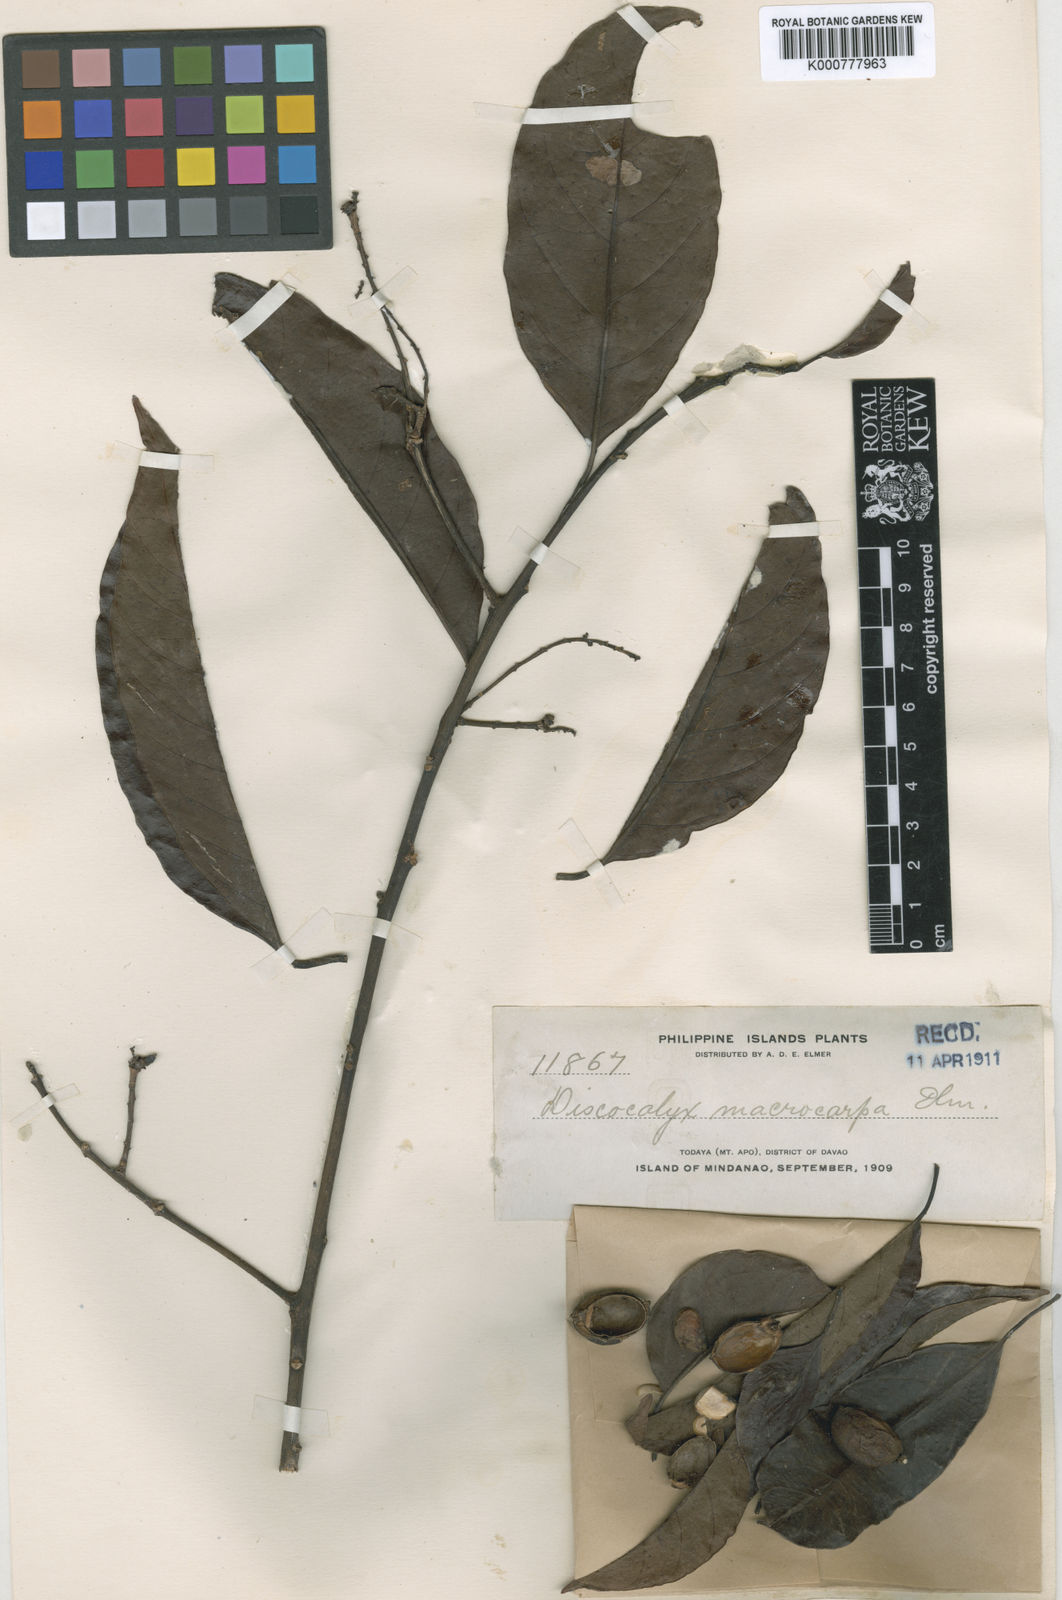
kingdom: Plantae
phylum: Tracheophyta
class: Magnoliopsida
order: Ericales
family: Sapotaceae
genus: Sarcosperma
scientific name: Sarcosperma
